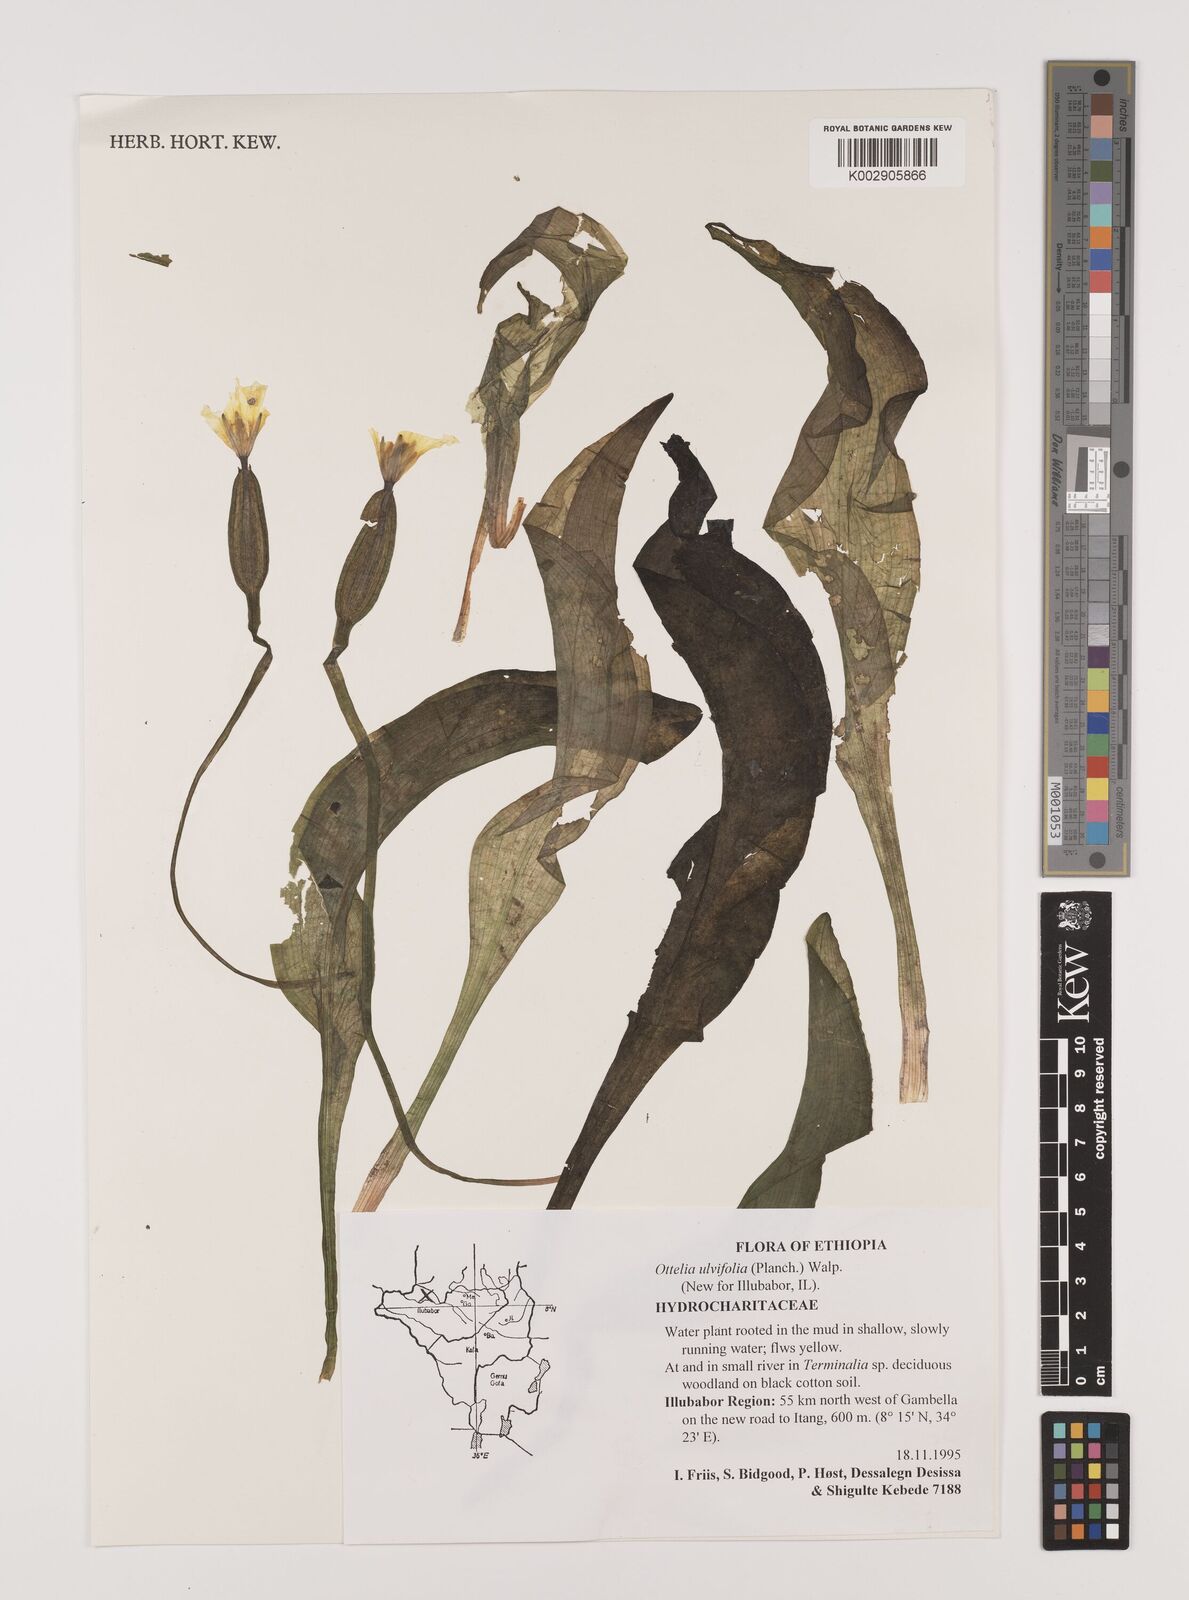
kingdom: Plantae
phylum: Tracheophyta
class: Liliopsida
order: Alismatales
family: Hydrocharitaceae
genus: Ottelia
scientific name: Ottelia ulvifolia
